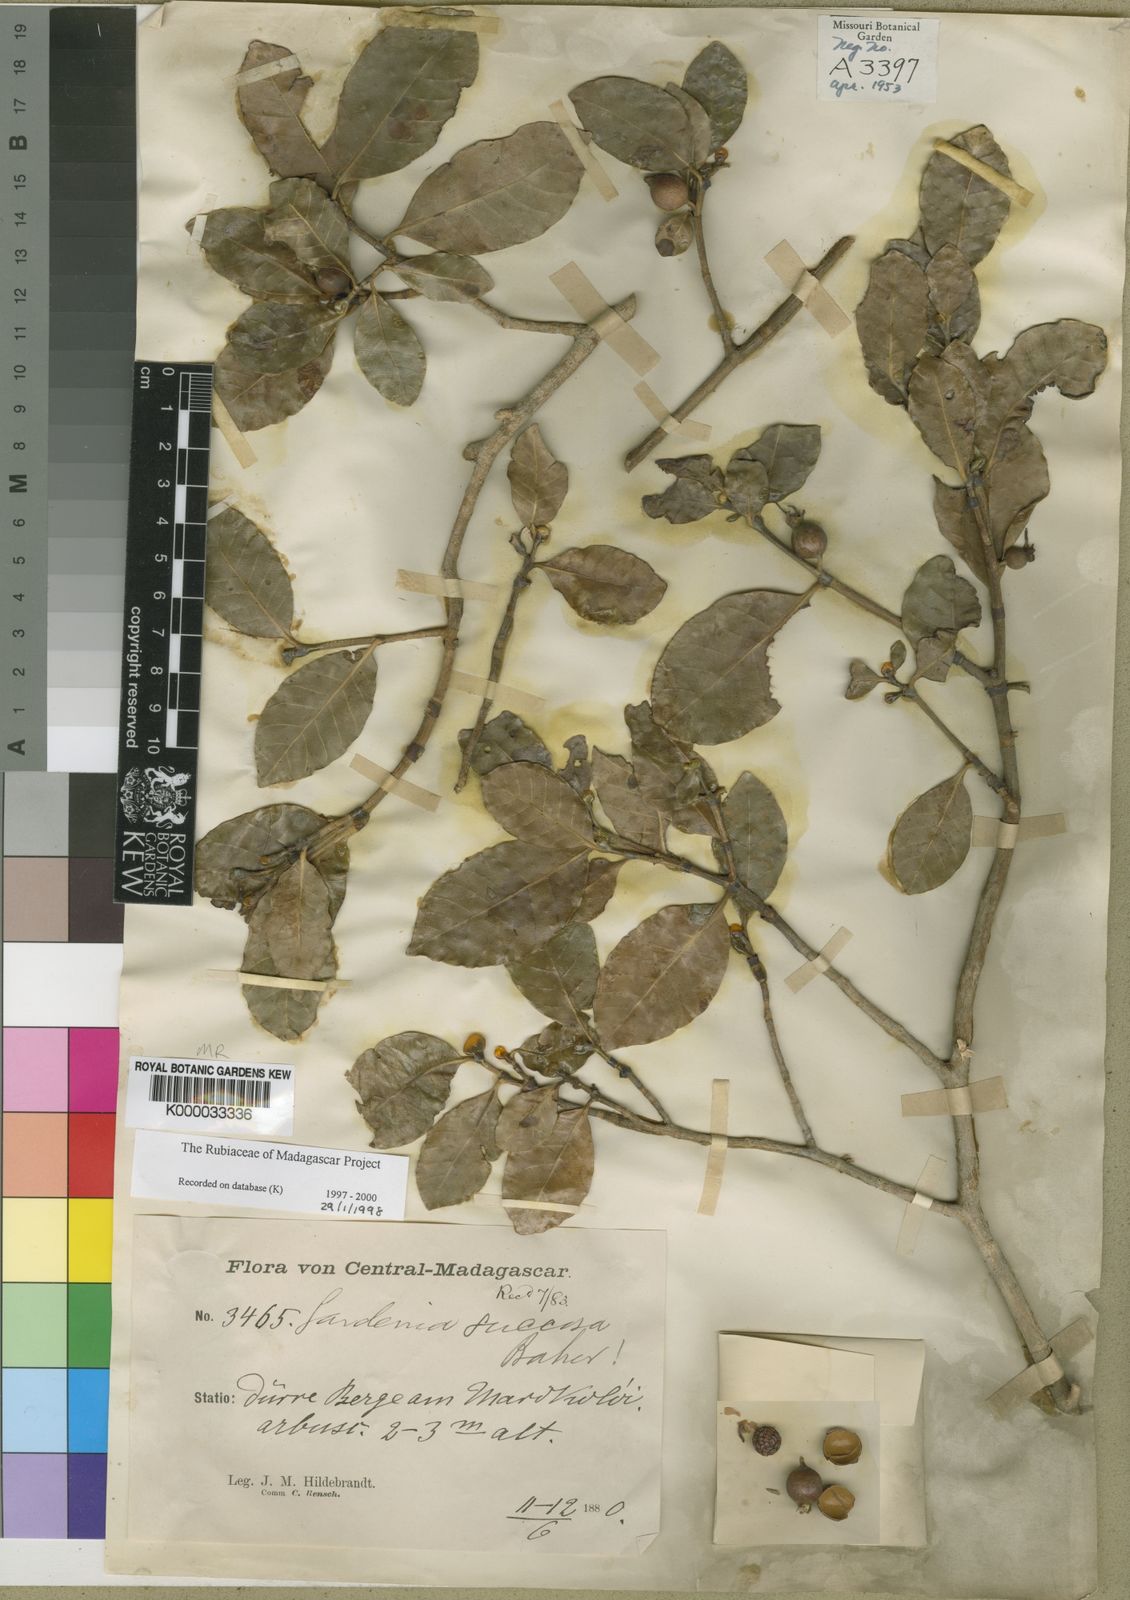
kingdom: Plantae
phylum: Tracheophyta
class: Magnoliopsida
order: Gentianales
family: Rubiaceae
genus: Gardenia
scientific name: Gardenia rutenbergiana
